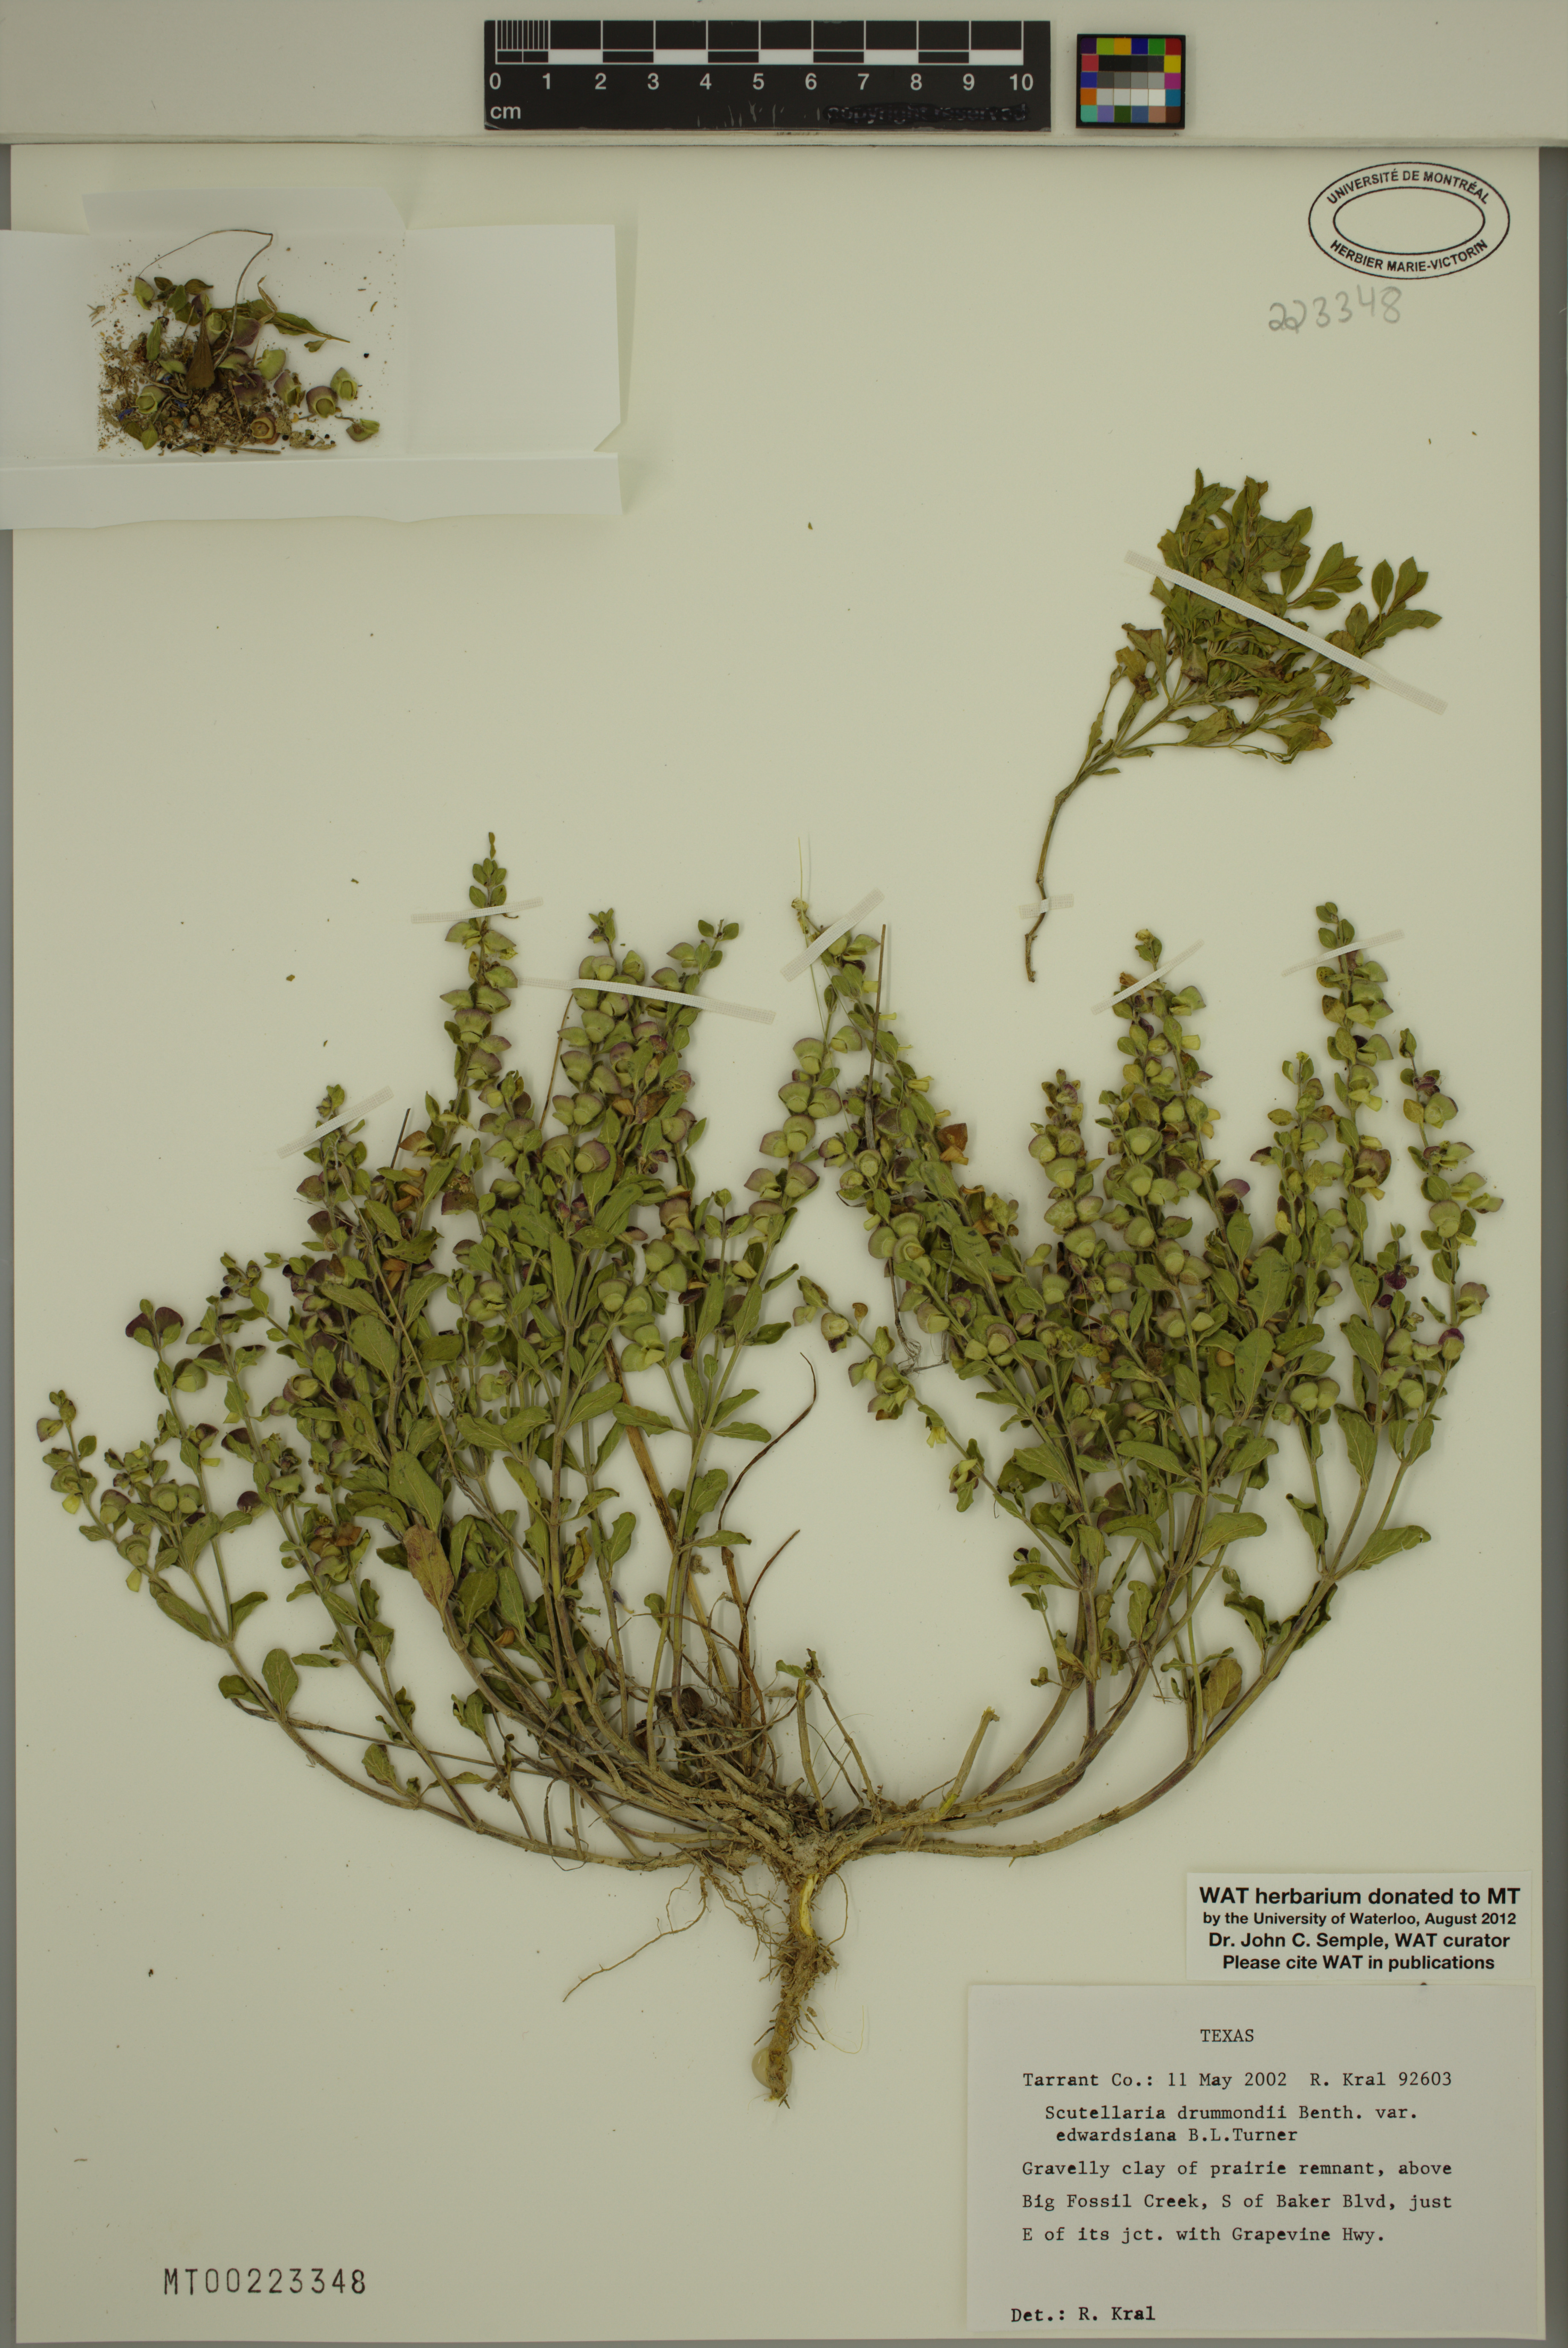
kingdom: Plantae
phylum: Tracheophyta
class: Magnoliopsida
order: Lamiales
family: Lamiaceae
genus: Scutellaria
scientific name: Scutellaria drummondii
